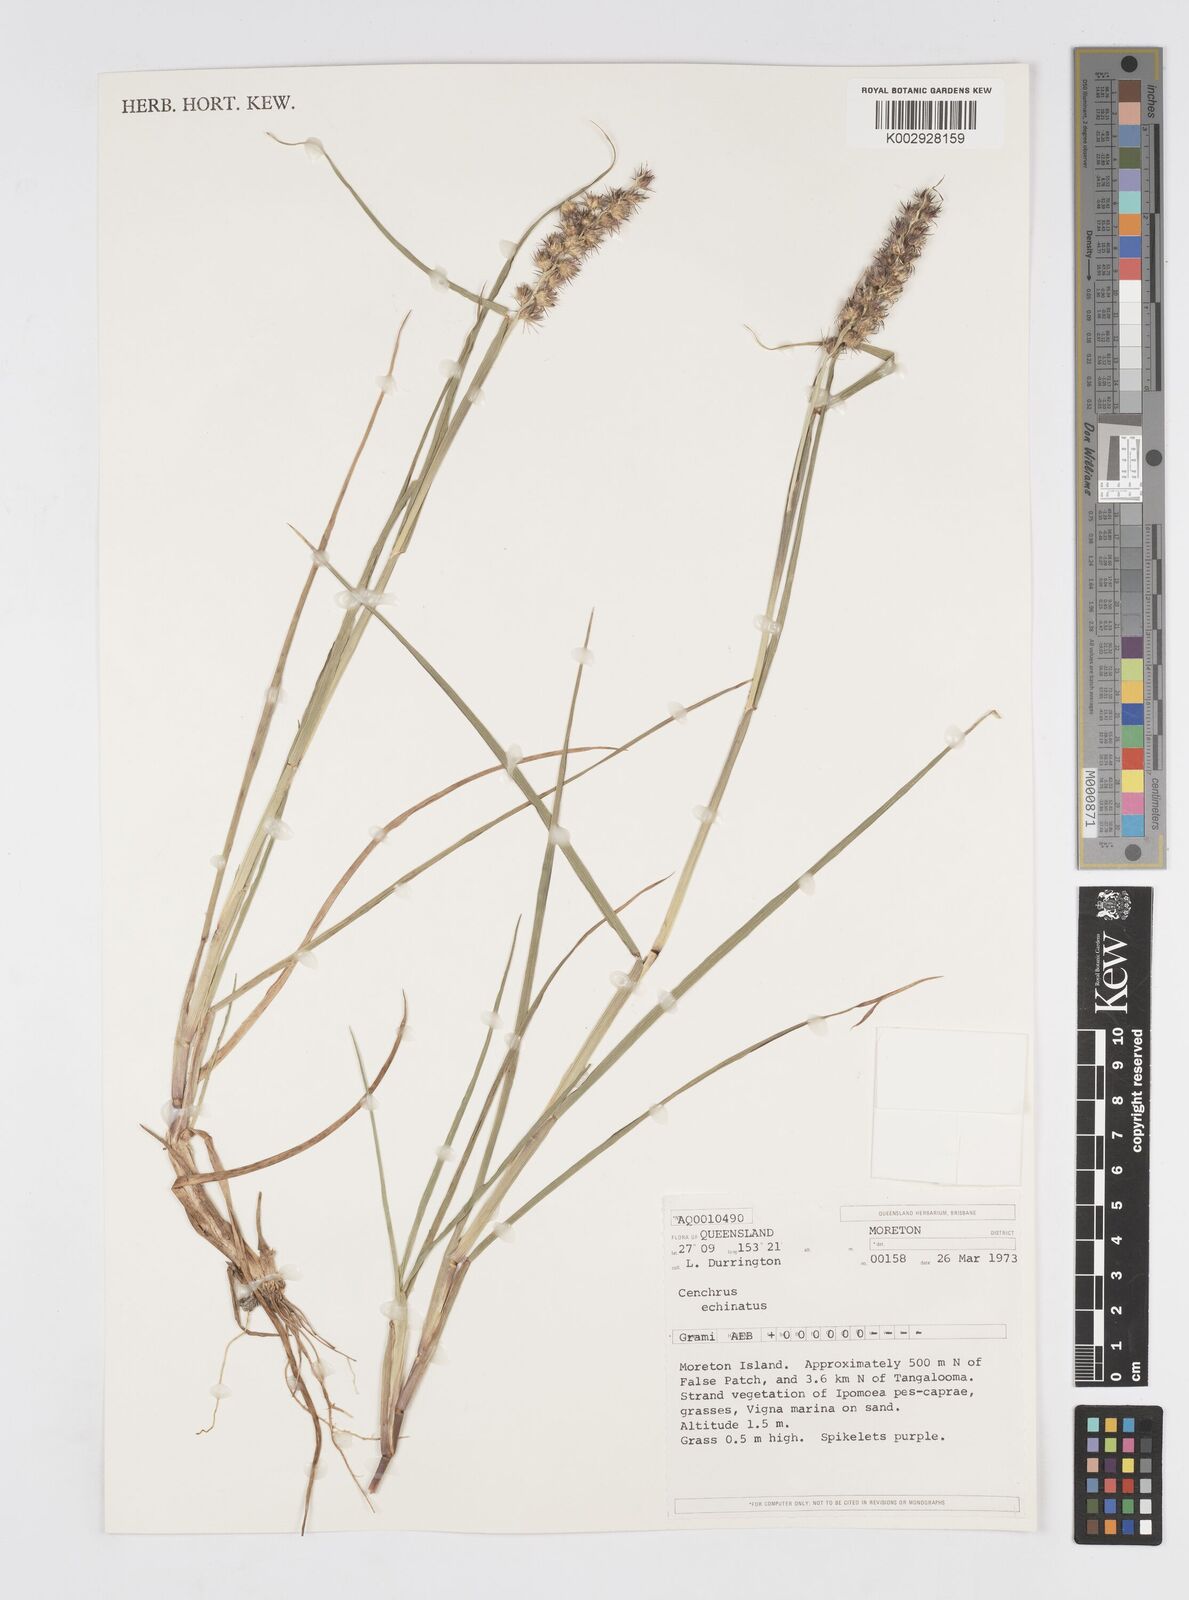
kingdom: Plantae
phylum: Tracheophyta
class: Liliopsida
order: Poales
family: Poaceae
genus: Cenchrus
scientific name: Cenchrus echinatus
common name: Southern sandbur
